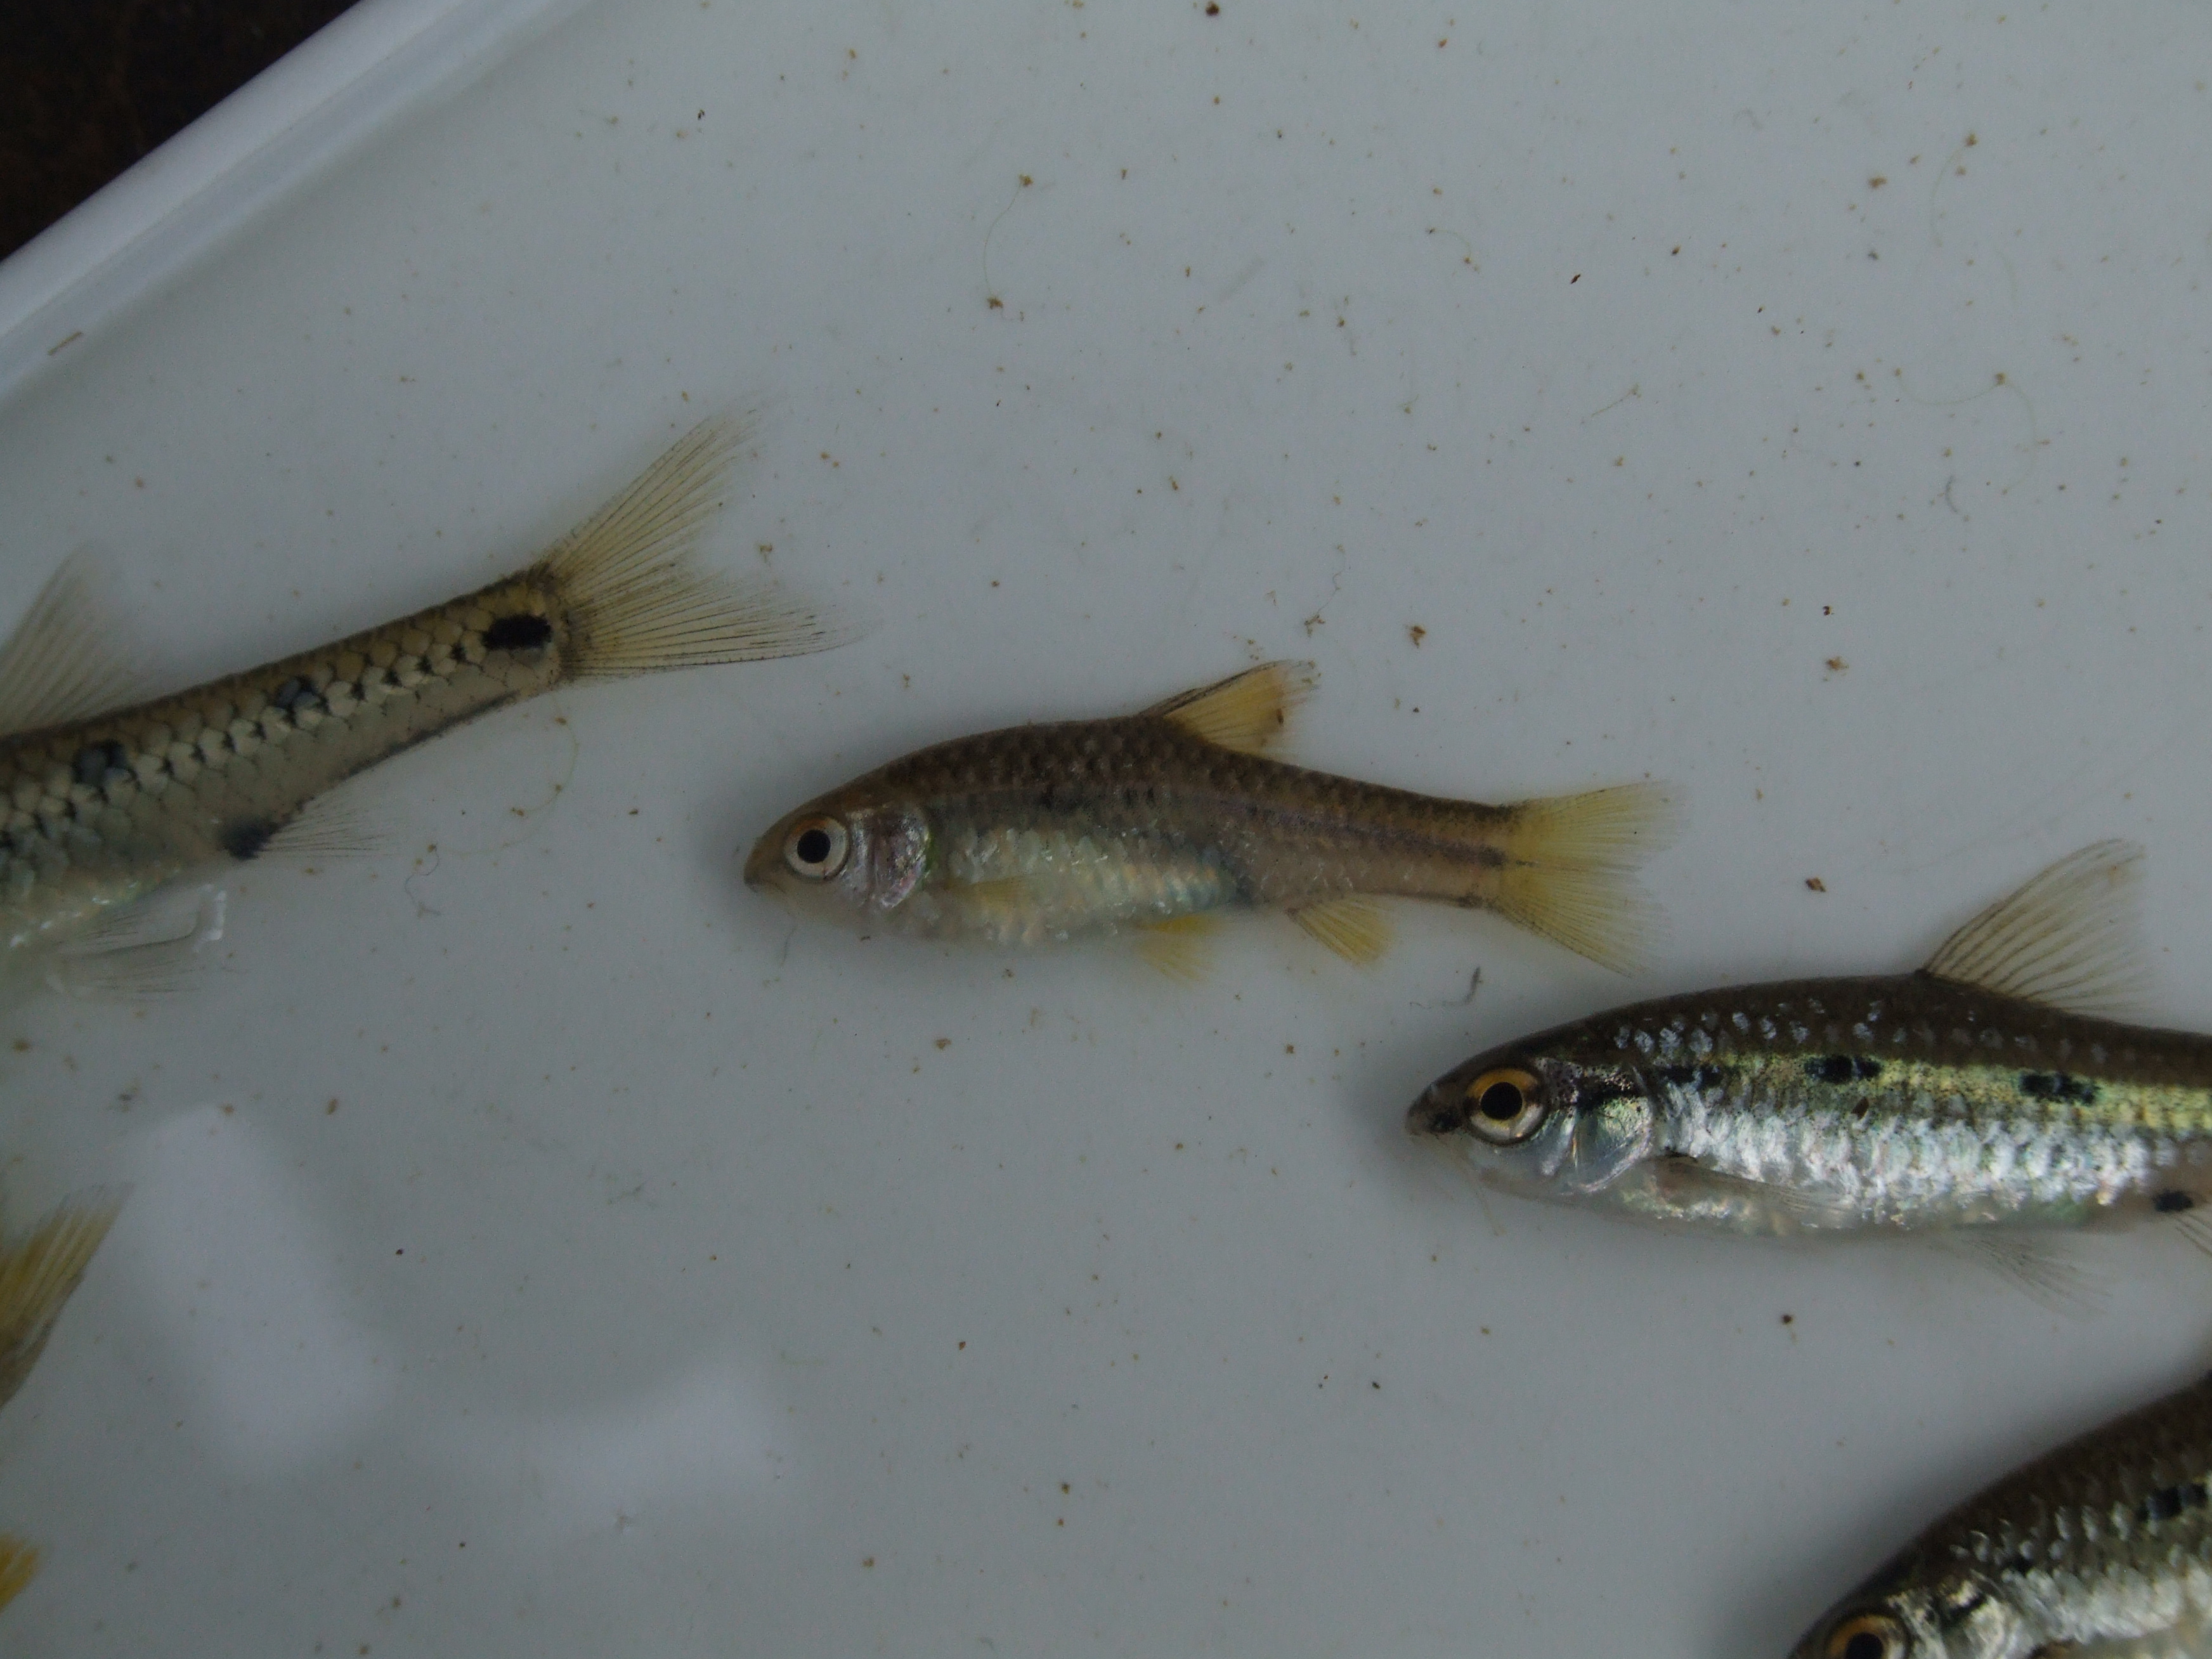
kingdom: Animalia
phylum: Chordata
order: Cypriniformes
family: Cyprinidae
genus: Barbus
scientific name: Barbus
